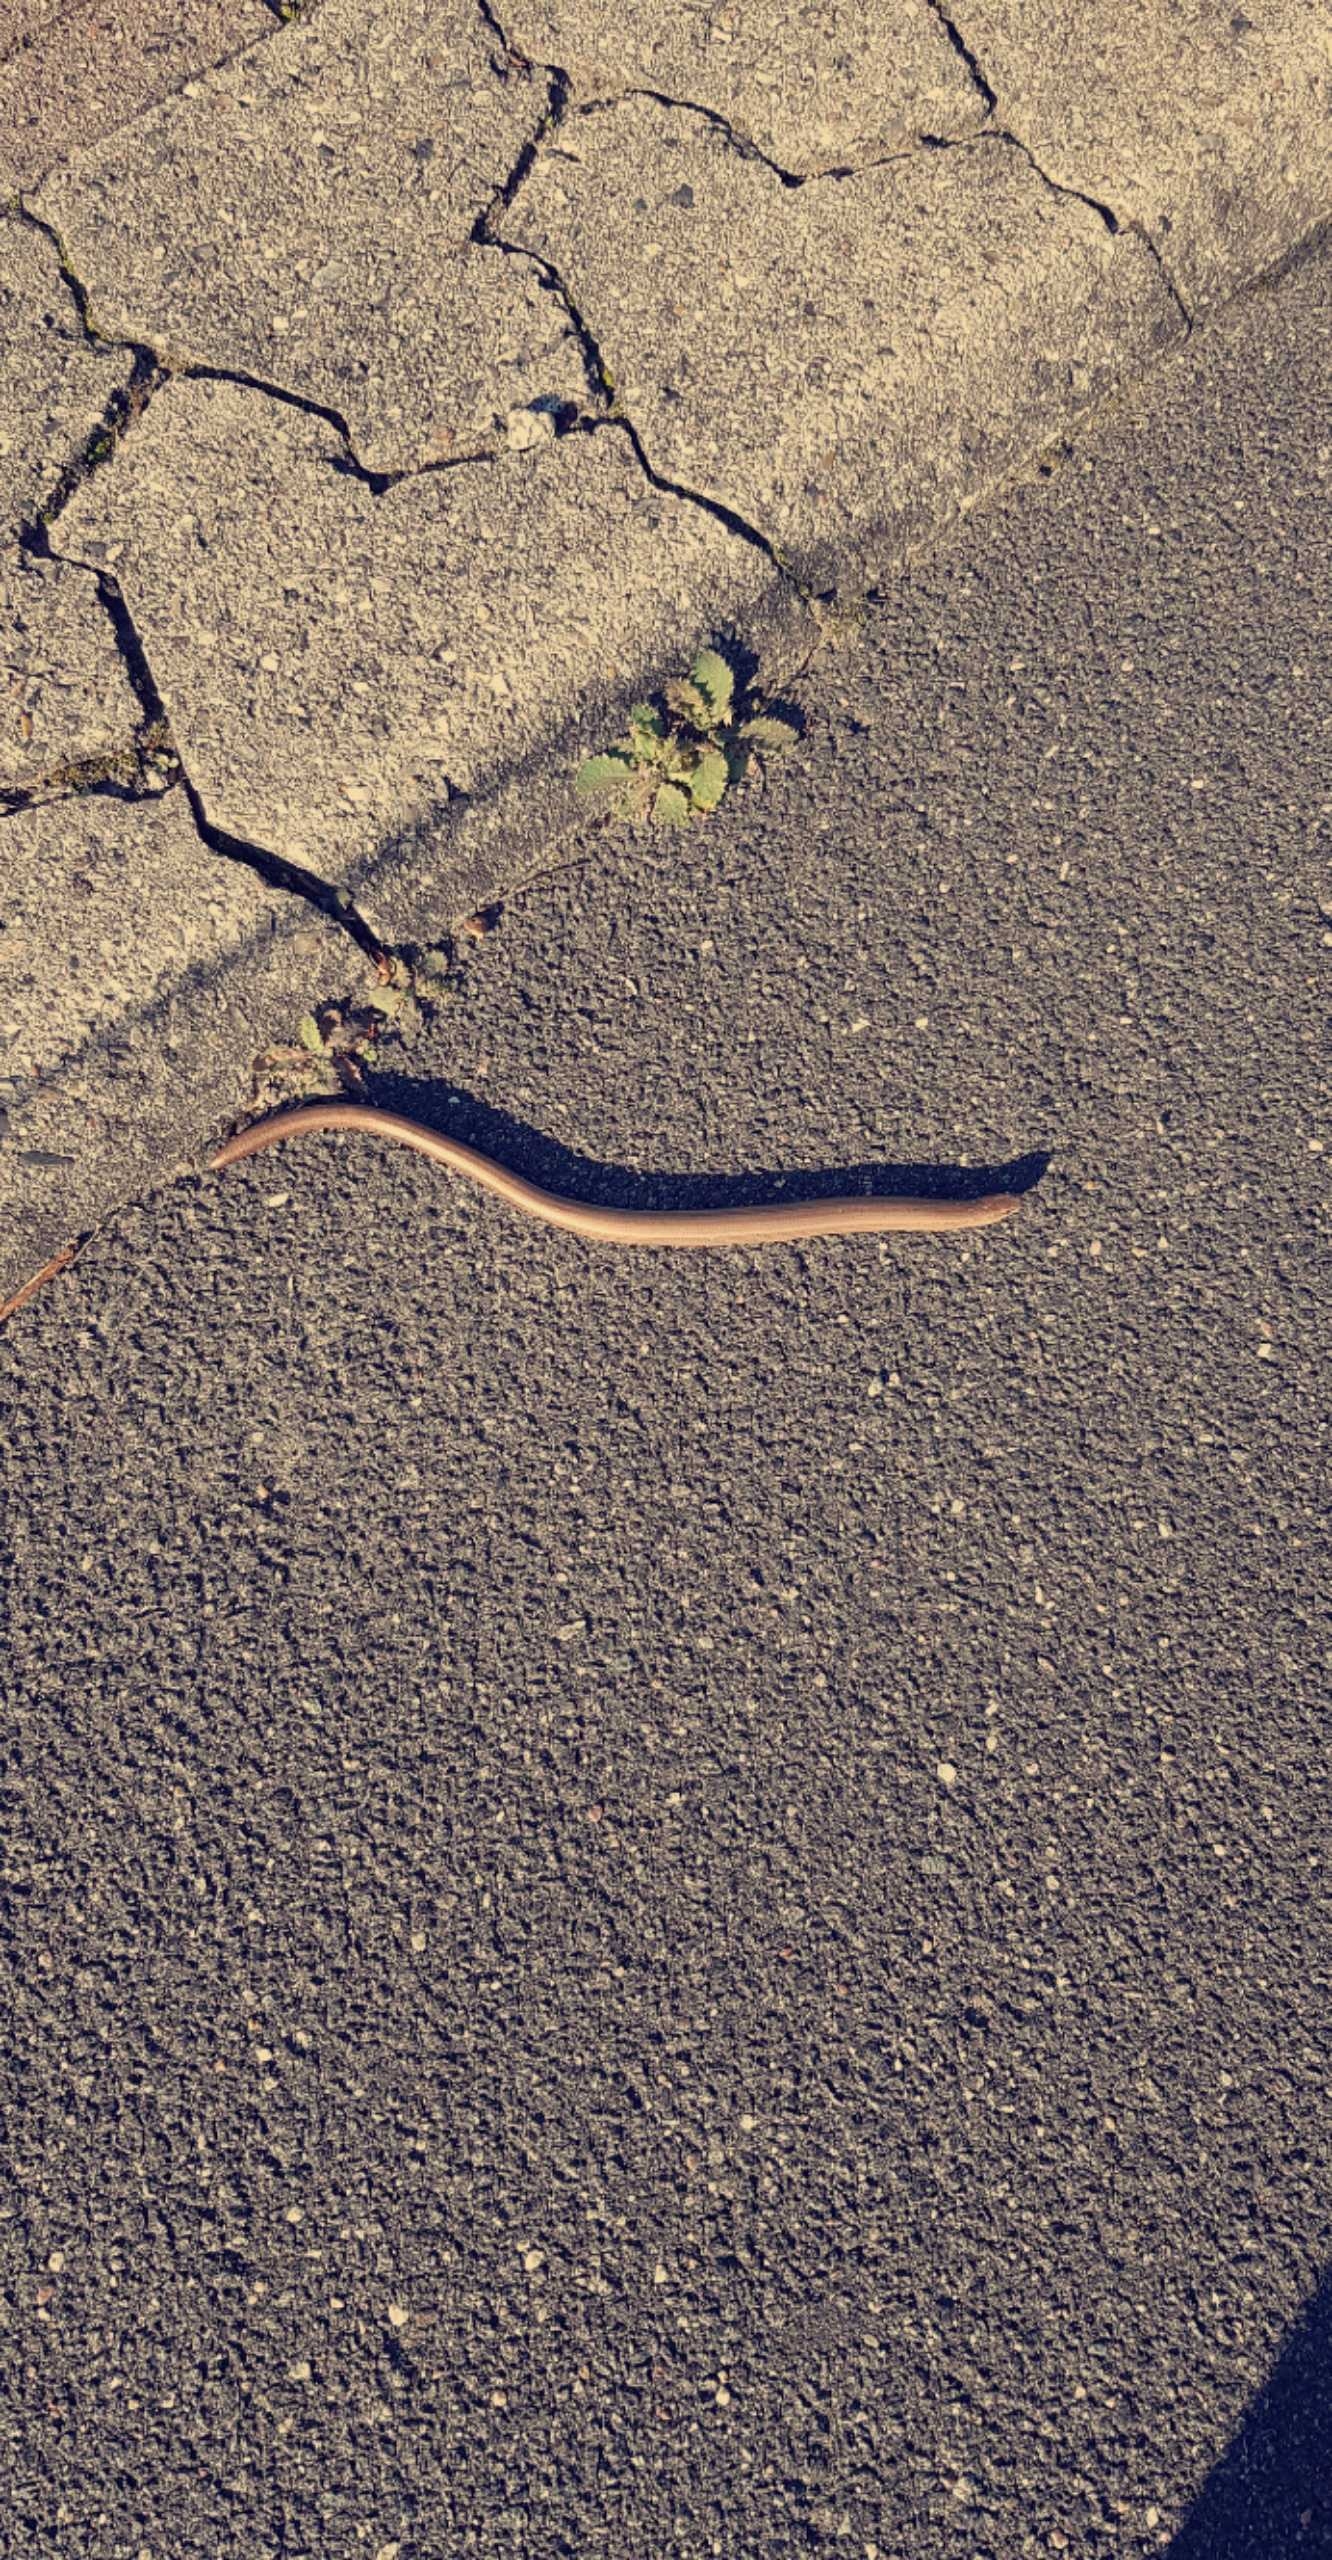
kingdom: Animalia
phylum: Chordata
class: Squamata
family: Anguidae
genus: Anguis
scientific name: Anguis fragilis
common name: Stålorm
